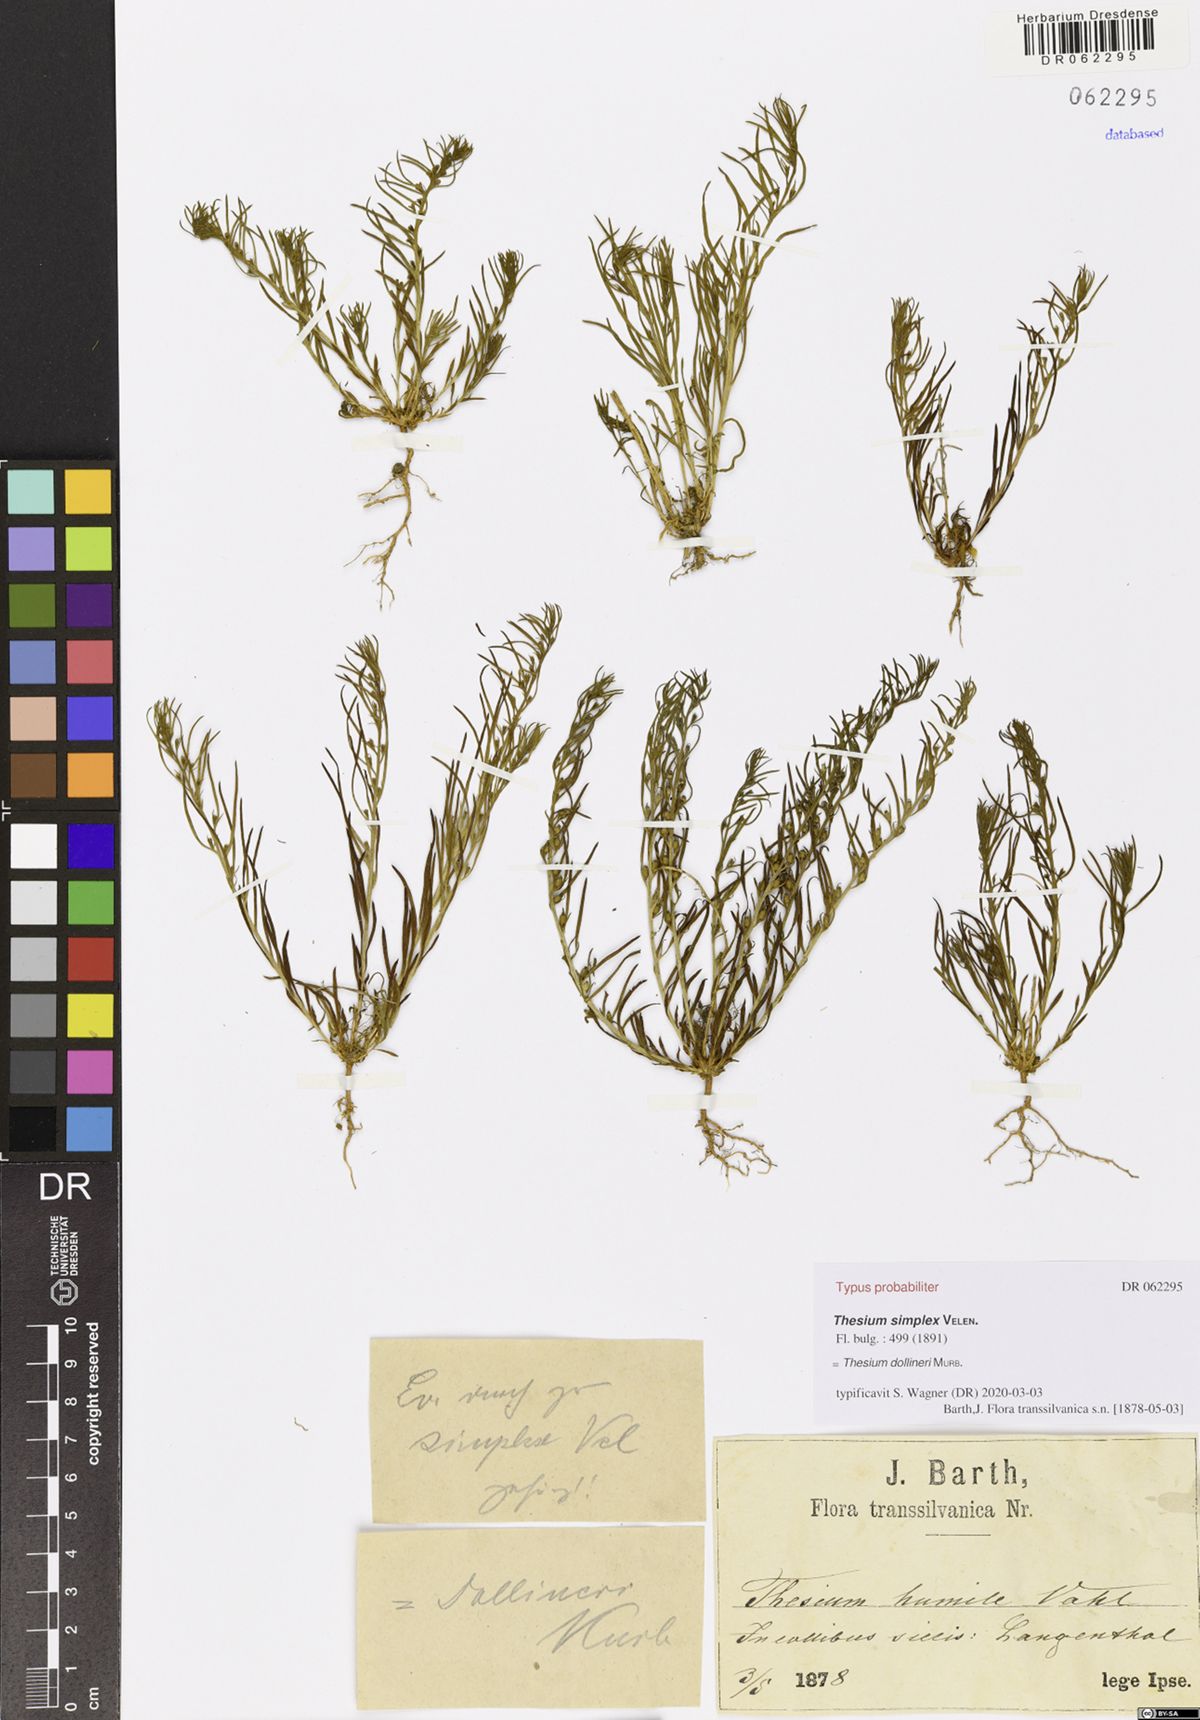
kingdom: Plantae
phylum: Tracheophyta
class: Magnoliopsida
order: Santalales
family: Thesiaceae
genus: Thesium
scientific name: Thesium dollineri
